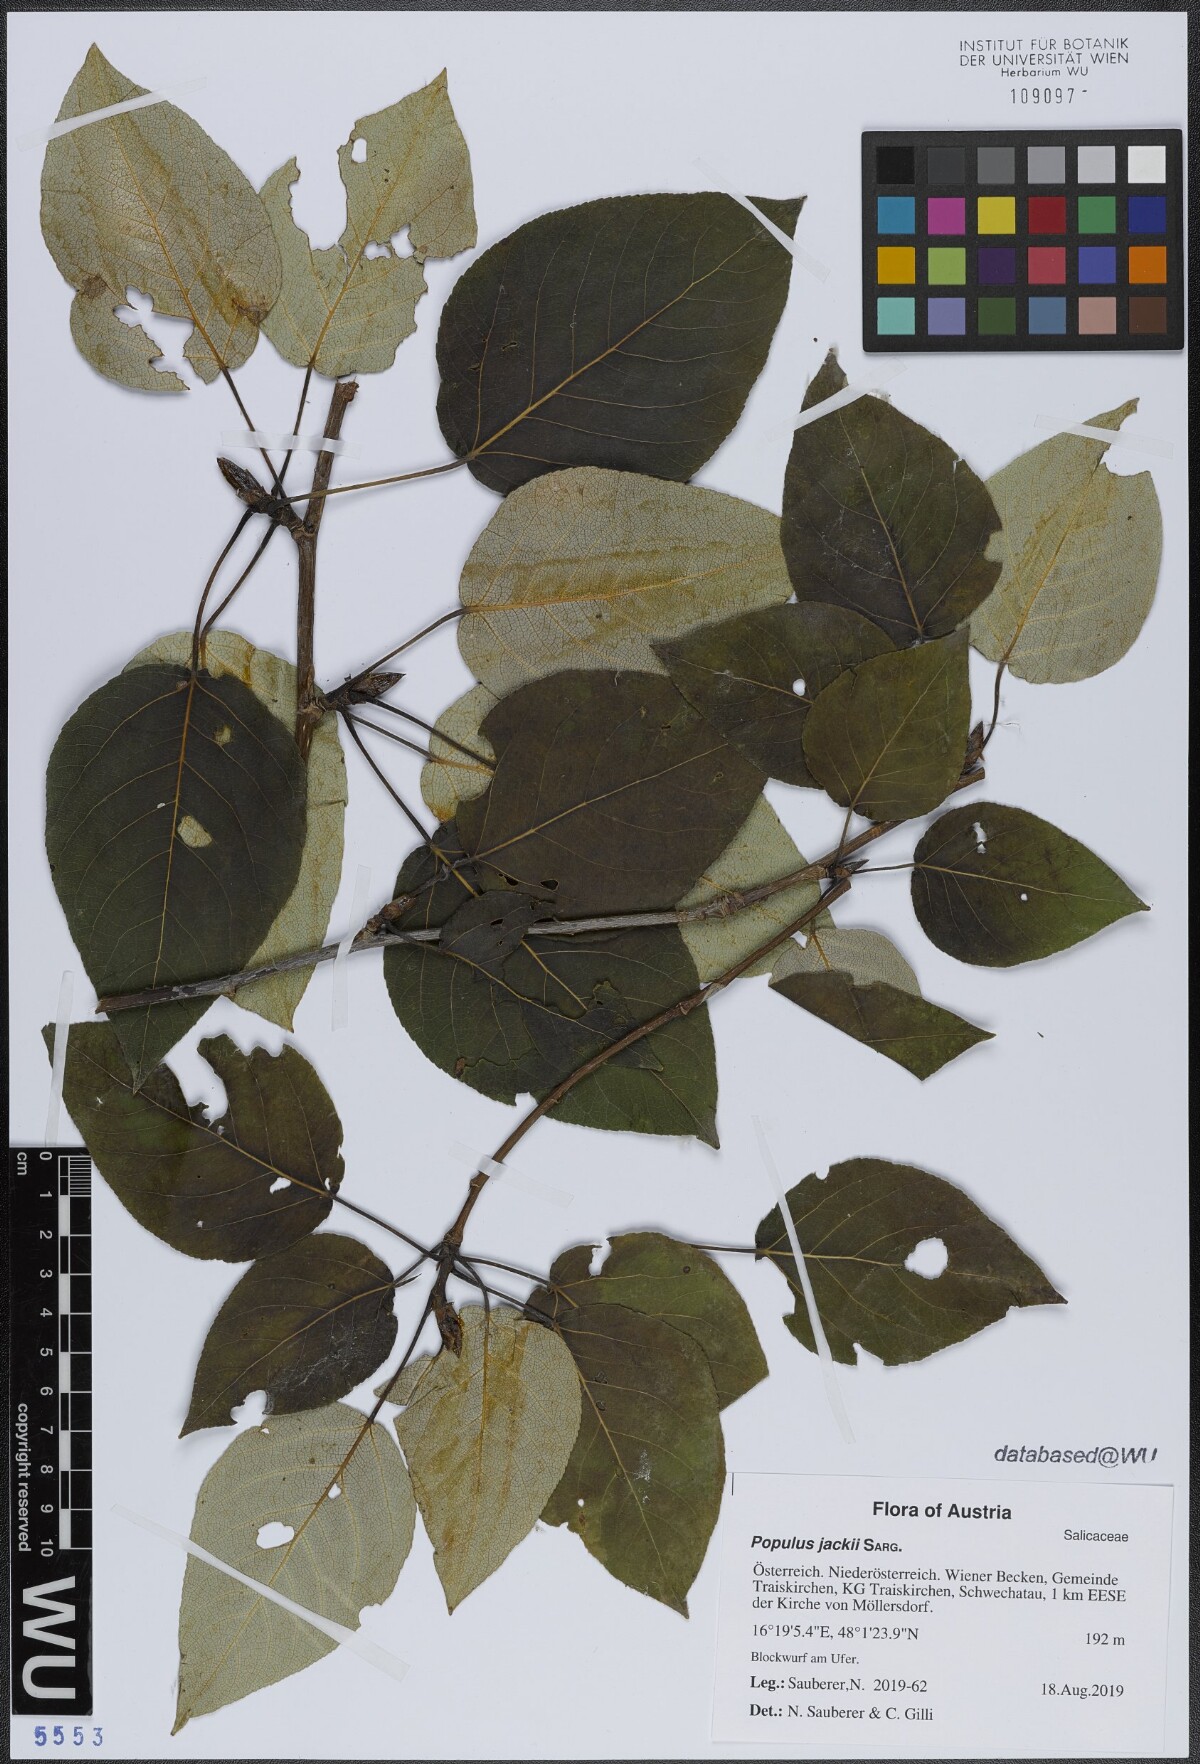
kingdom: Plantae
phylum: Tracheophyta
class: Magnoliopsida
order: Malpighiales
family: Salicaceae
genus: Populus
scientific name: Populus jackii
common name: Balm-of-gilead
